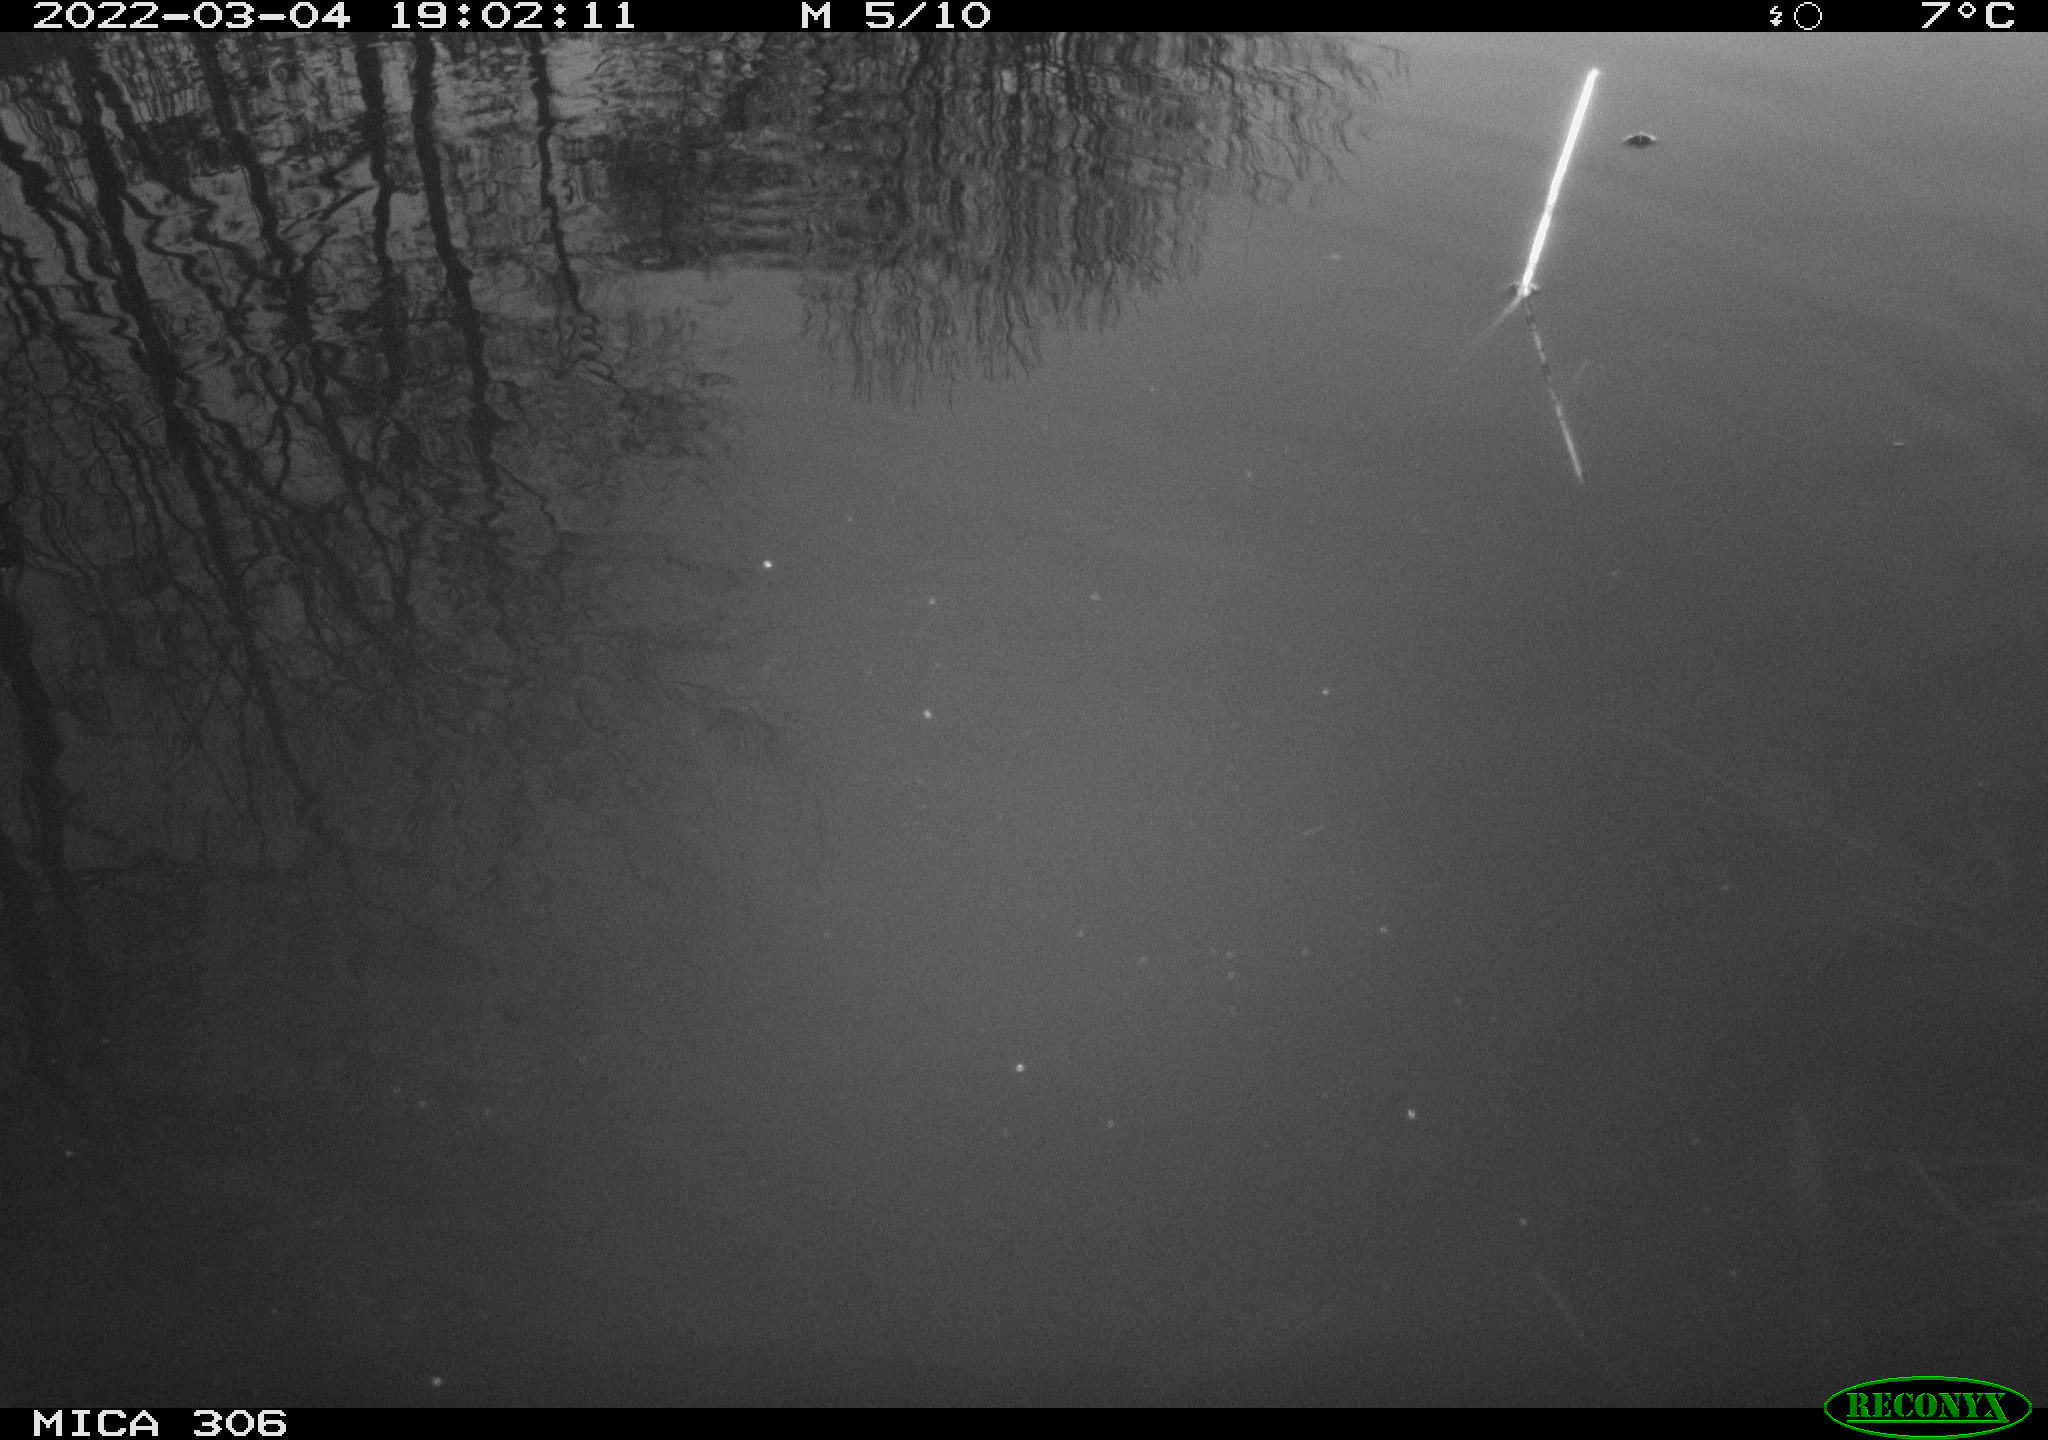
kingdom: Animalia
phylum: Chordata
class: Aves
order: Gruiformes
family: Rallidae
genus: Gallinula
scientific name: Gallinula chloropus
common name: Common moorhen
